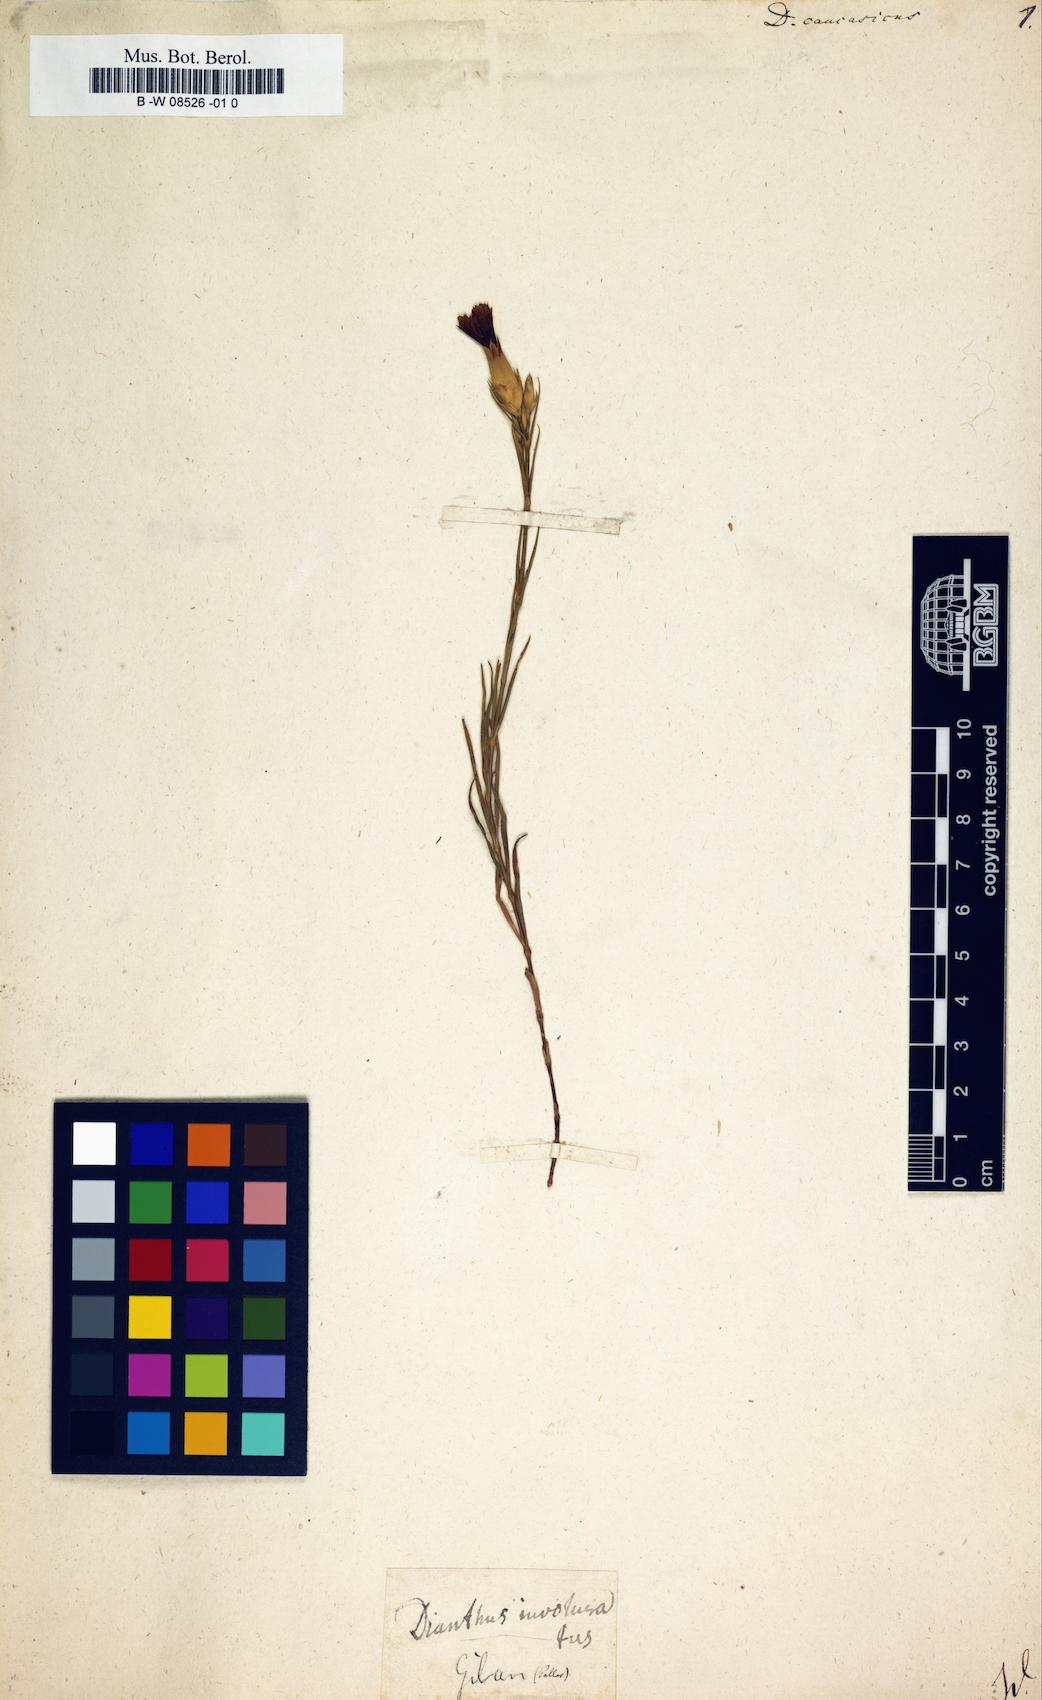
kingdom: Plantae
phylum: Tracheophyta
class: Magnoliopsida
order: Caryophyllales
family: Caryophyllaceae
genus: Dianthus
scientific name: Dianthus bicolor
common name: Bicolour pink
